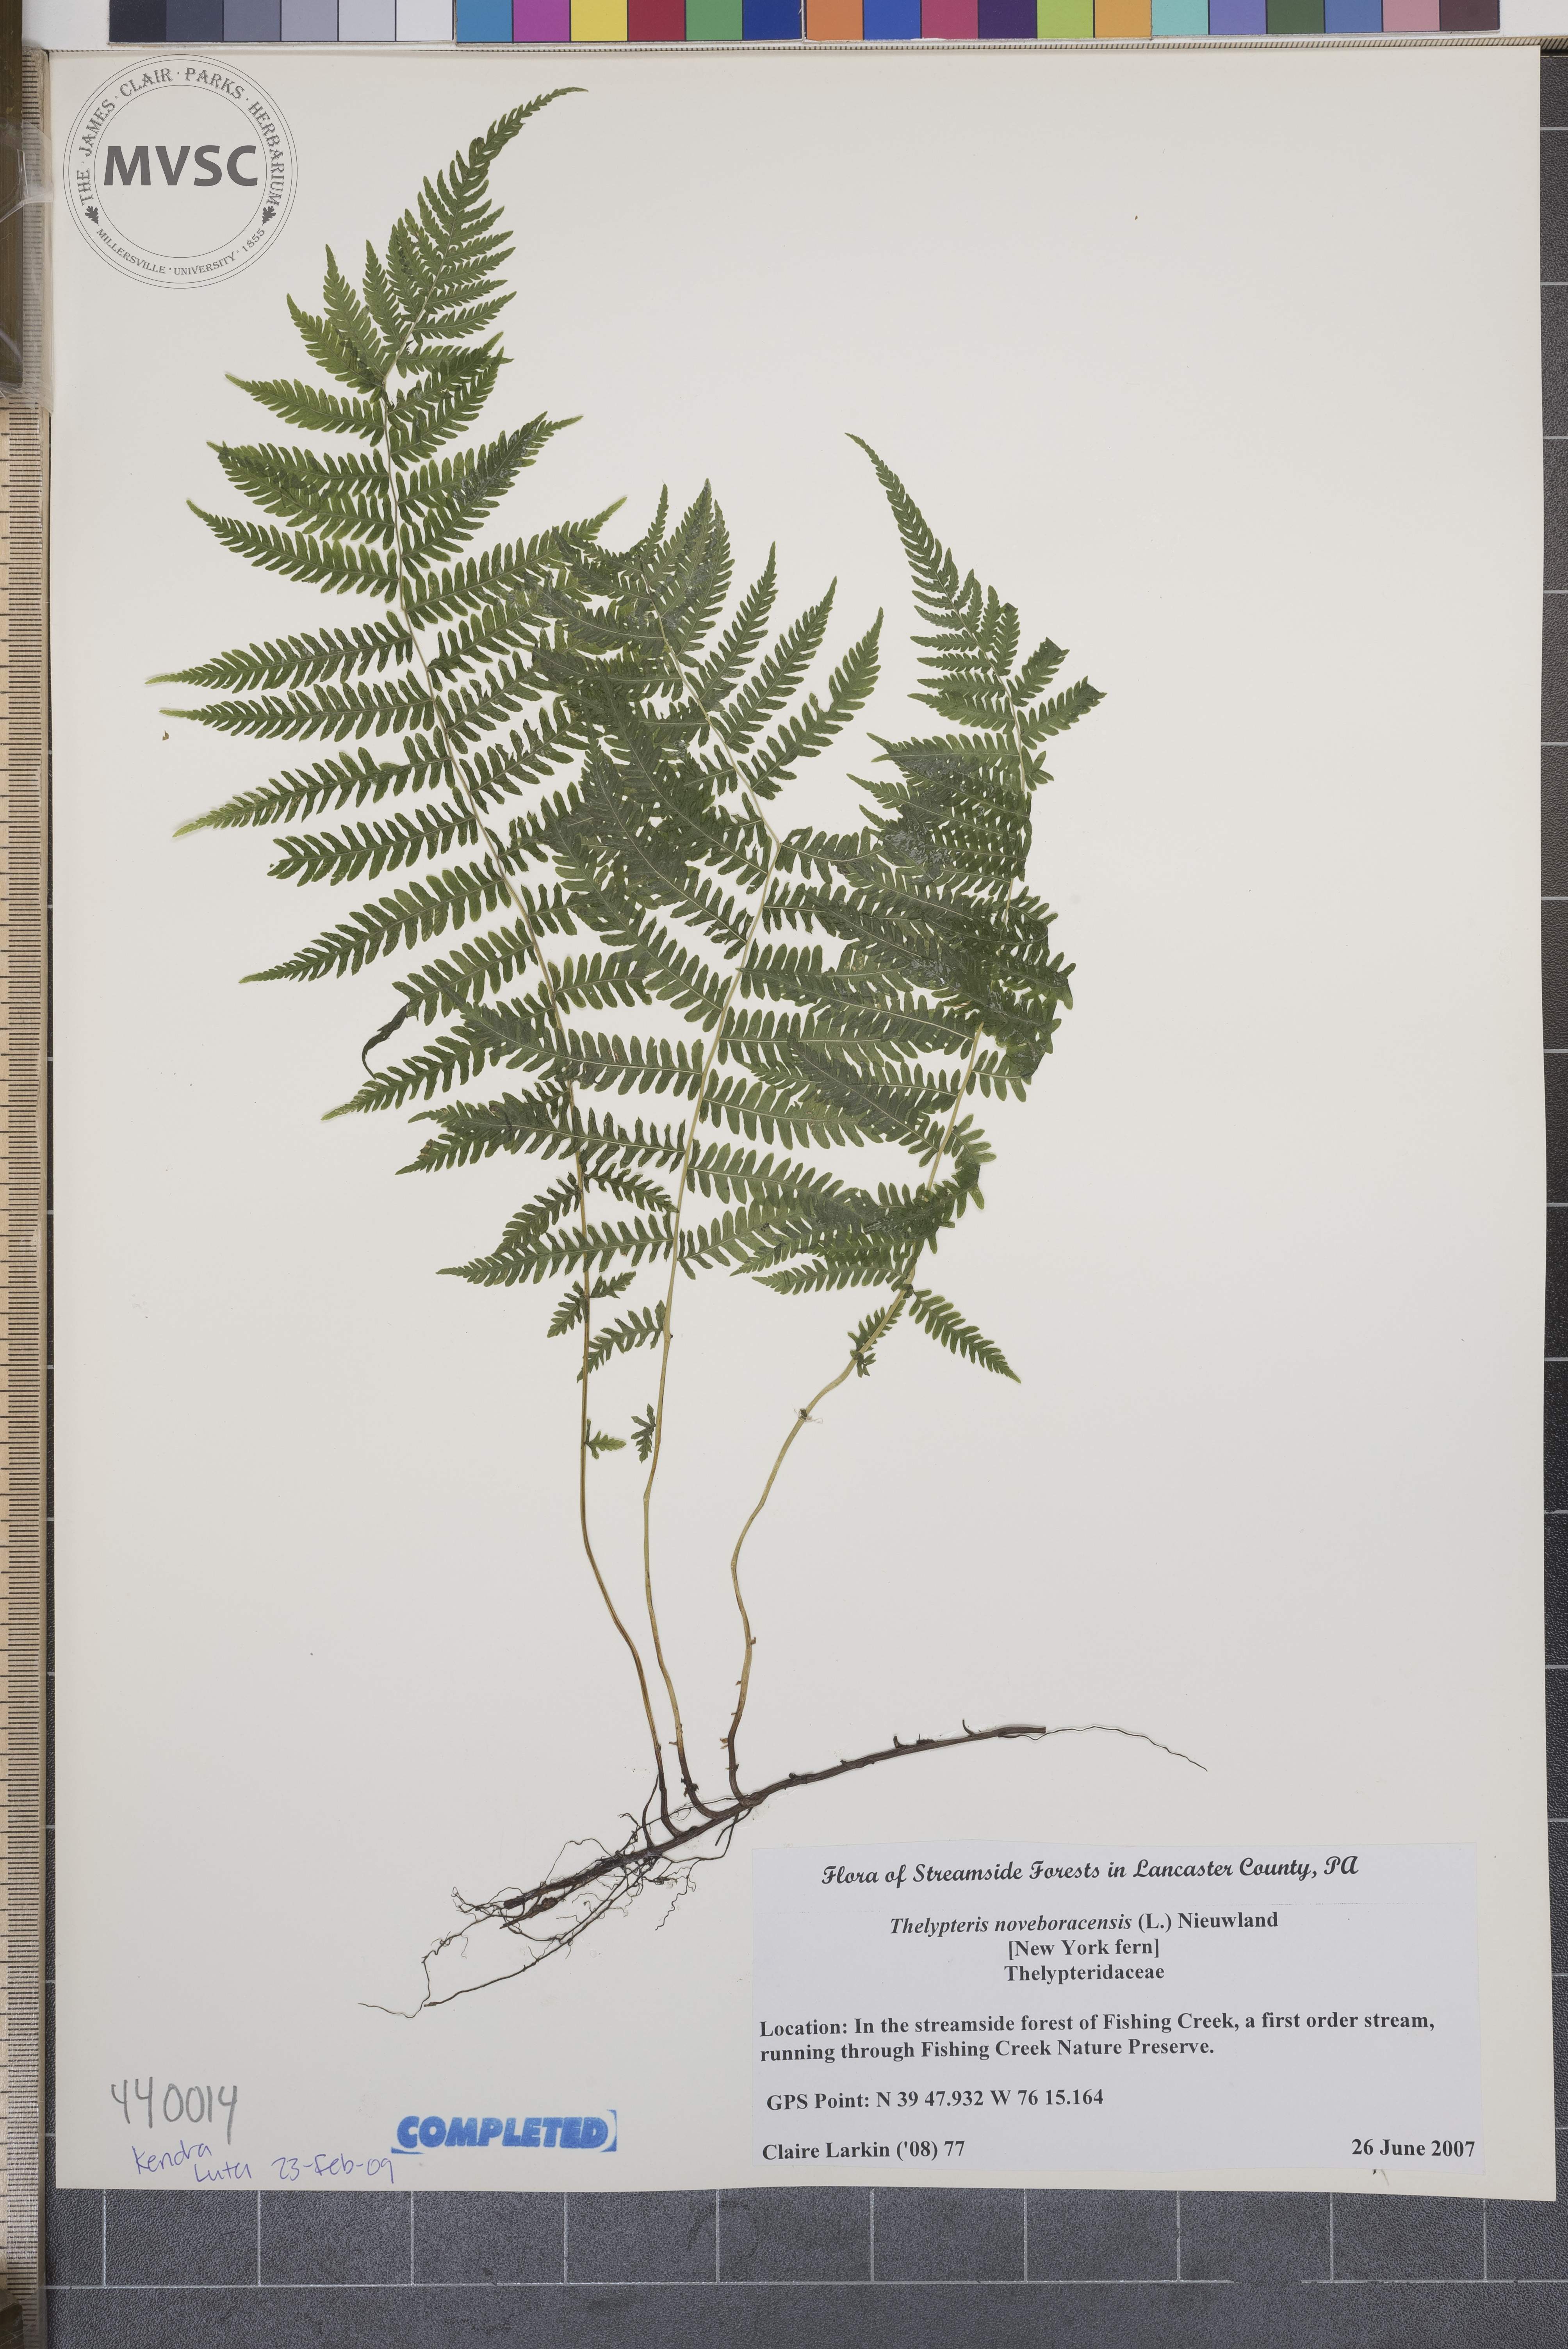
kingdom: Plantae
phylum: Tracheophyta
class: Polypodiopsida
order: Polypodiales
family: Thelypteridaceae
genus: Amauropelta
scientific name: Amauropelta noveboracensis
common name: New York Fern
